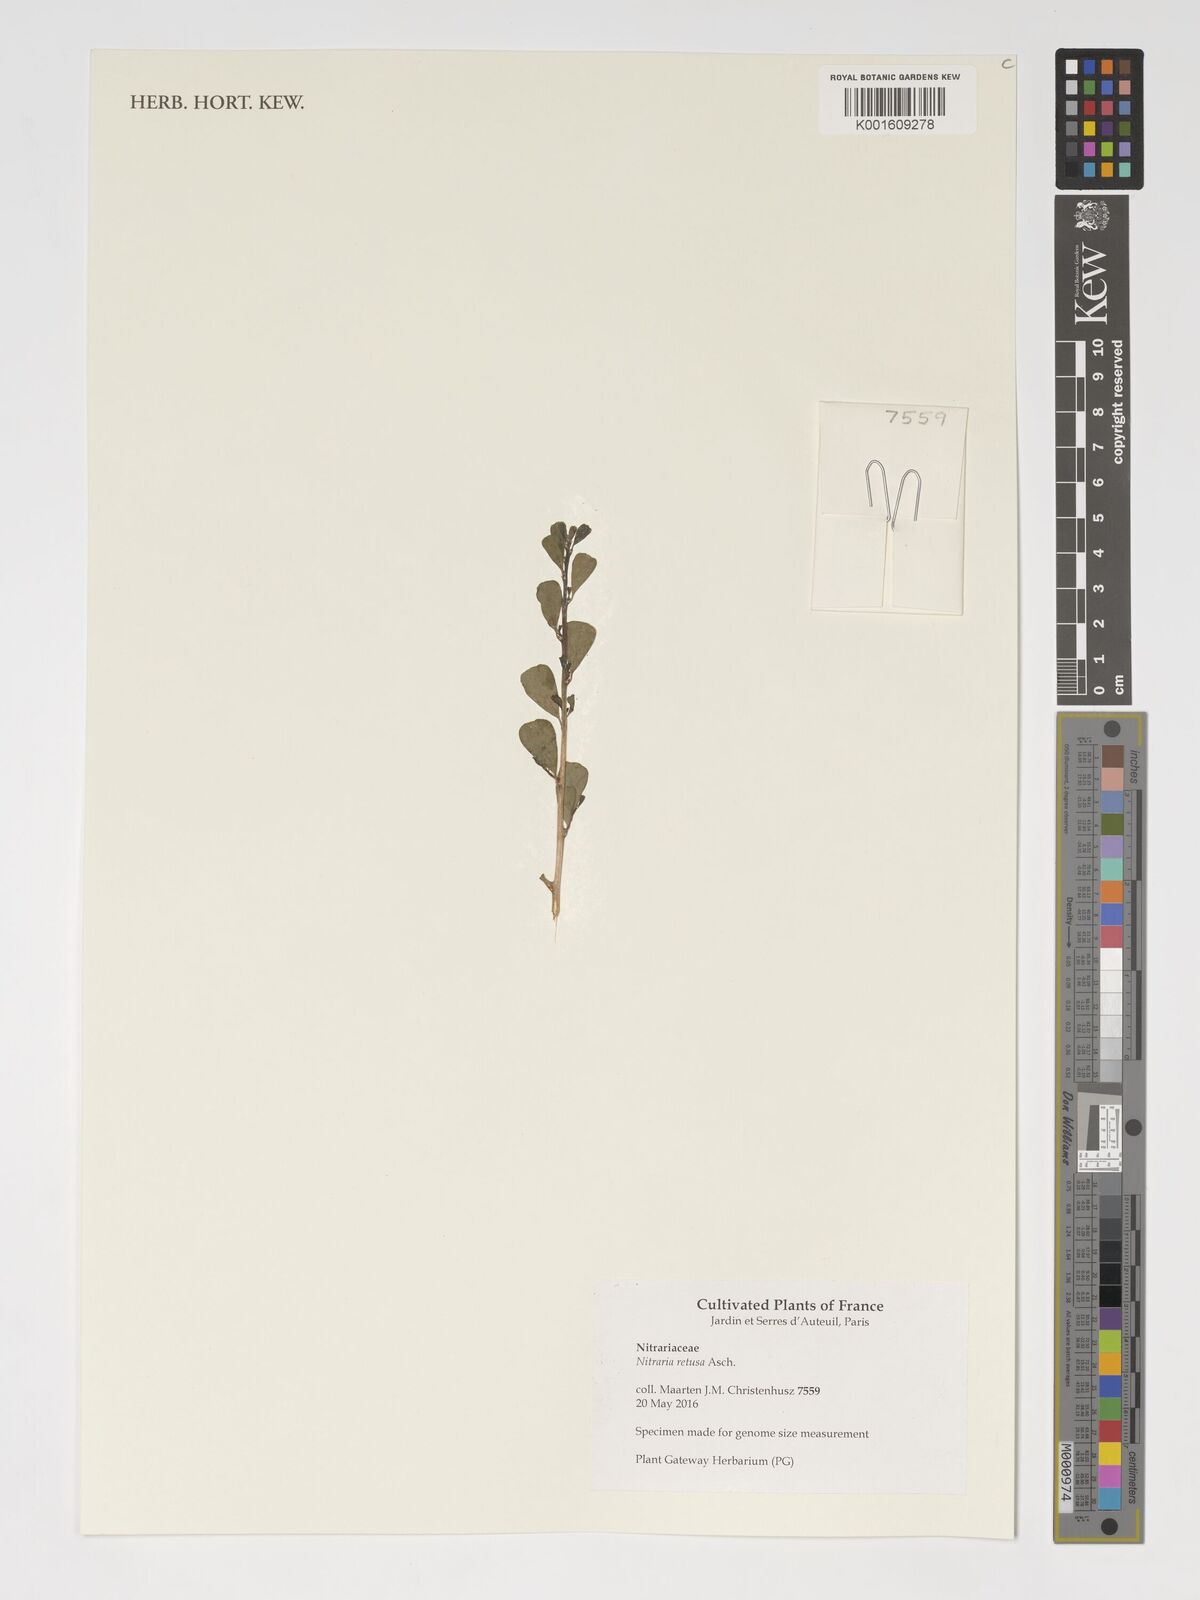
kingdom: Plantae
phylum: Tracheophyta
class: Magnoliopsida
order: Sapindales
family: Nitrariaceae
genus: Nitraria
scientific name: Nitraria retusa
